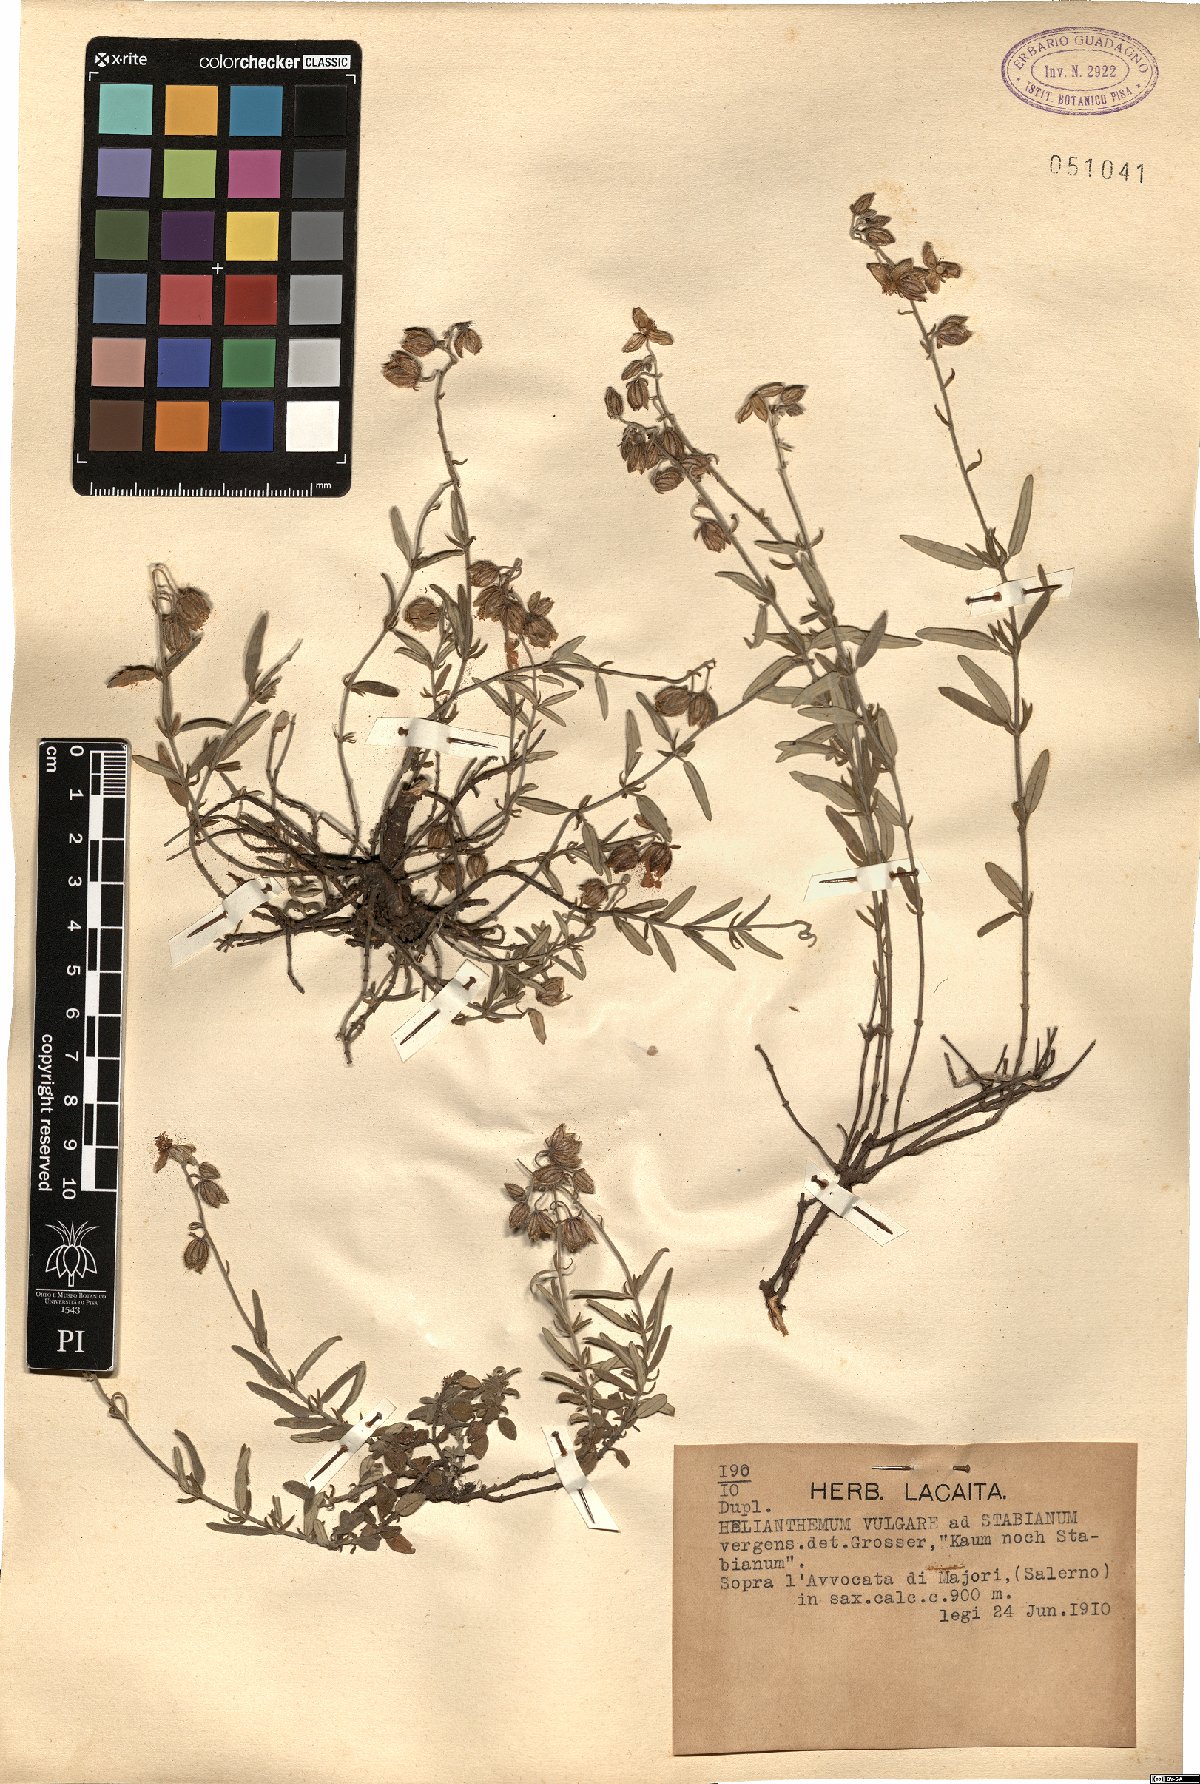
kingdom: Plantae
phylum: Tracheophyta
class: Magnoliopsida
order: Malvales
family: Cistaceae
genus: Helianthemum
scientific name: Helianthemum nummularium
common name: Common rock-rose
